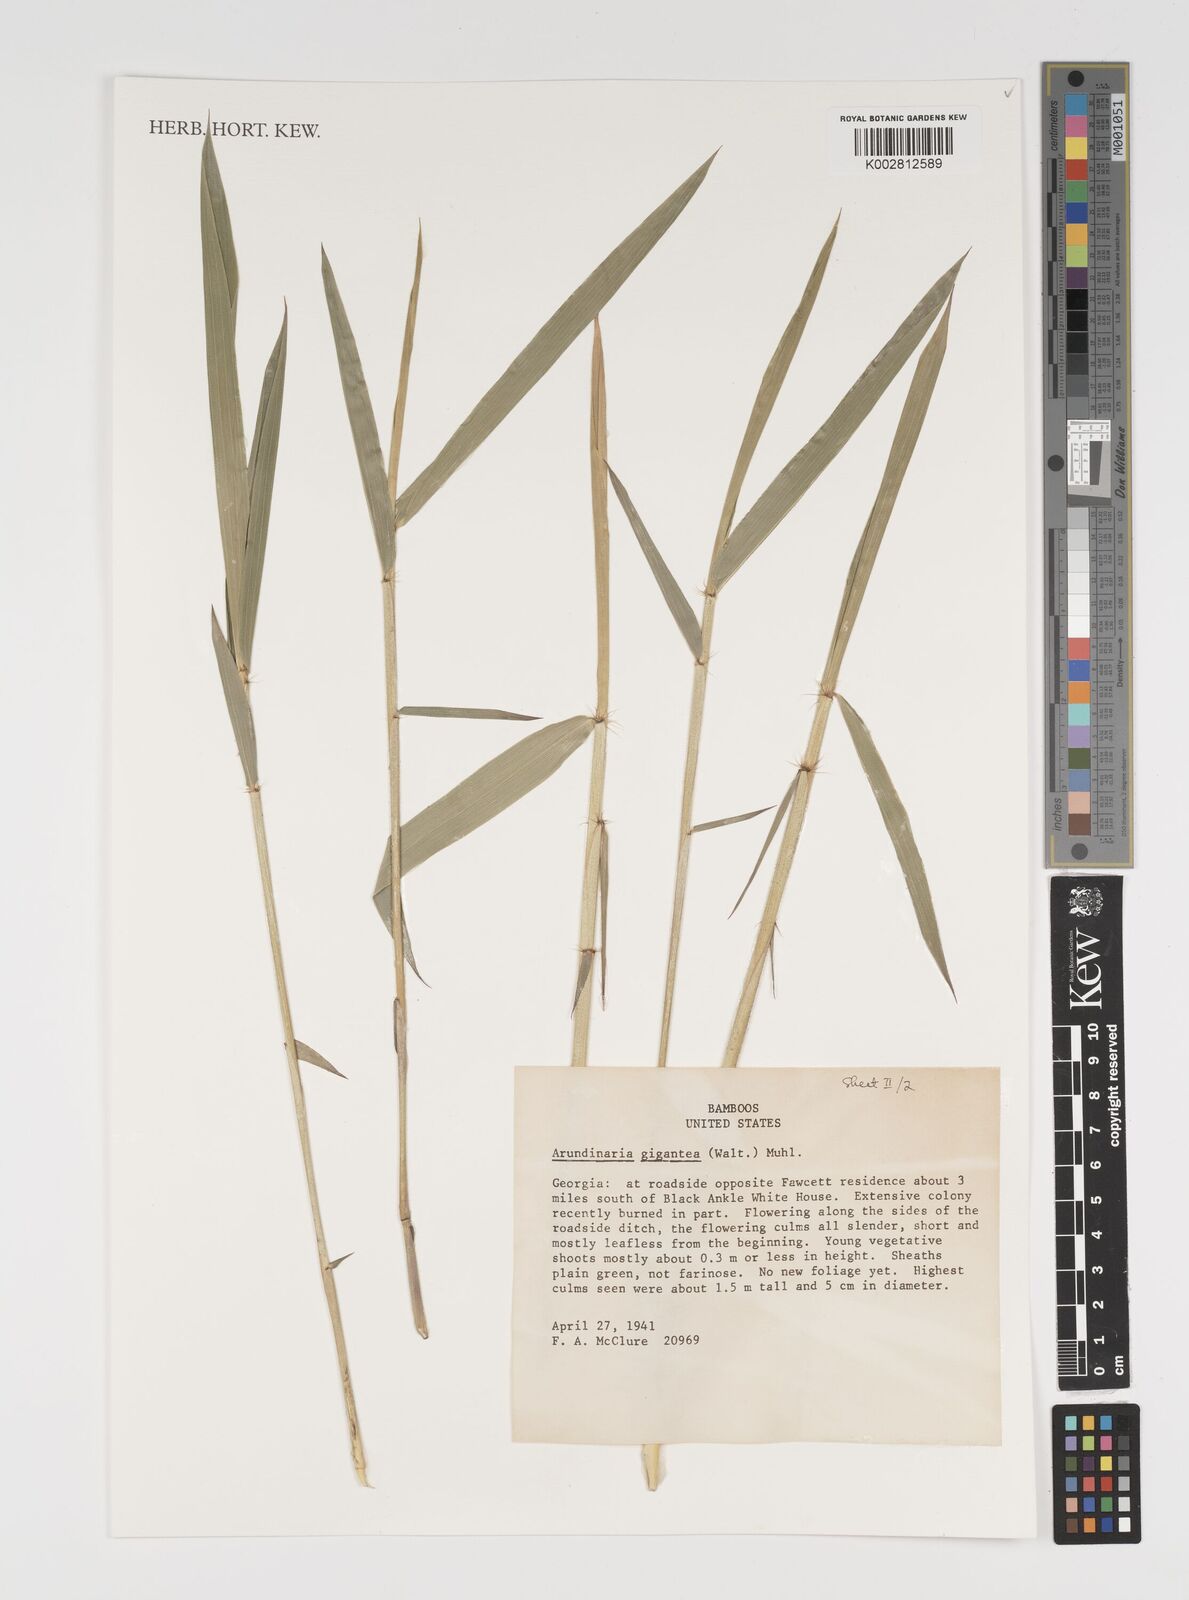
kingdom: Plantae
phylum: Tracheophyta
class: Liliopsida
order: Poales
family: Poaceae
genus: Arundinaria
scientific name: Arundinaria gigantea
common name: Giant cane
